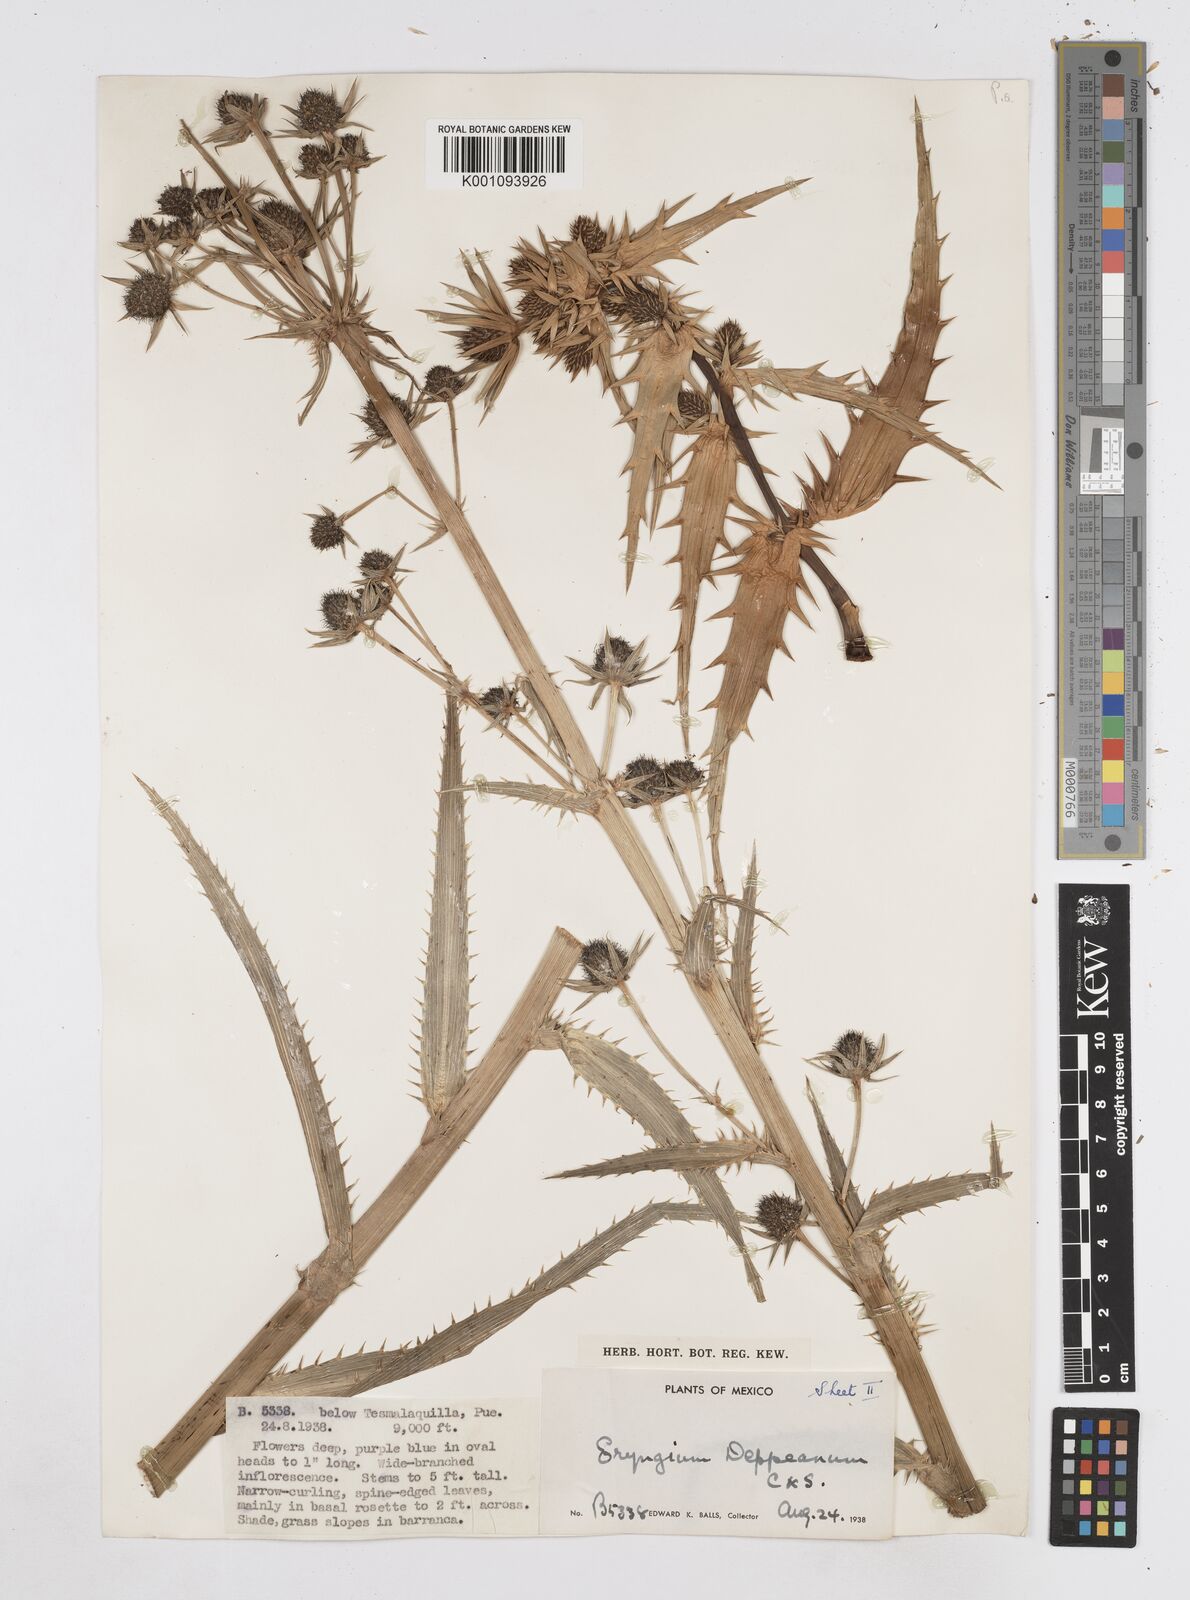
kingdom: Plantae
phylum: Tracheophyta
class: Magnoliopsida
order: Apiales
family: Apiaceae
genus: Eryngium
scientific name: Eryngium
